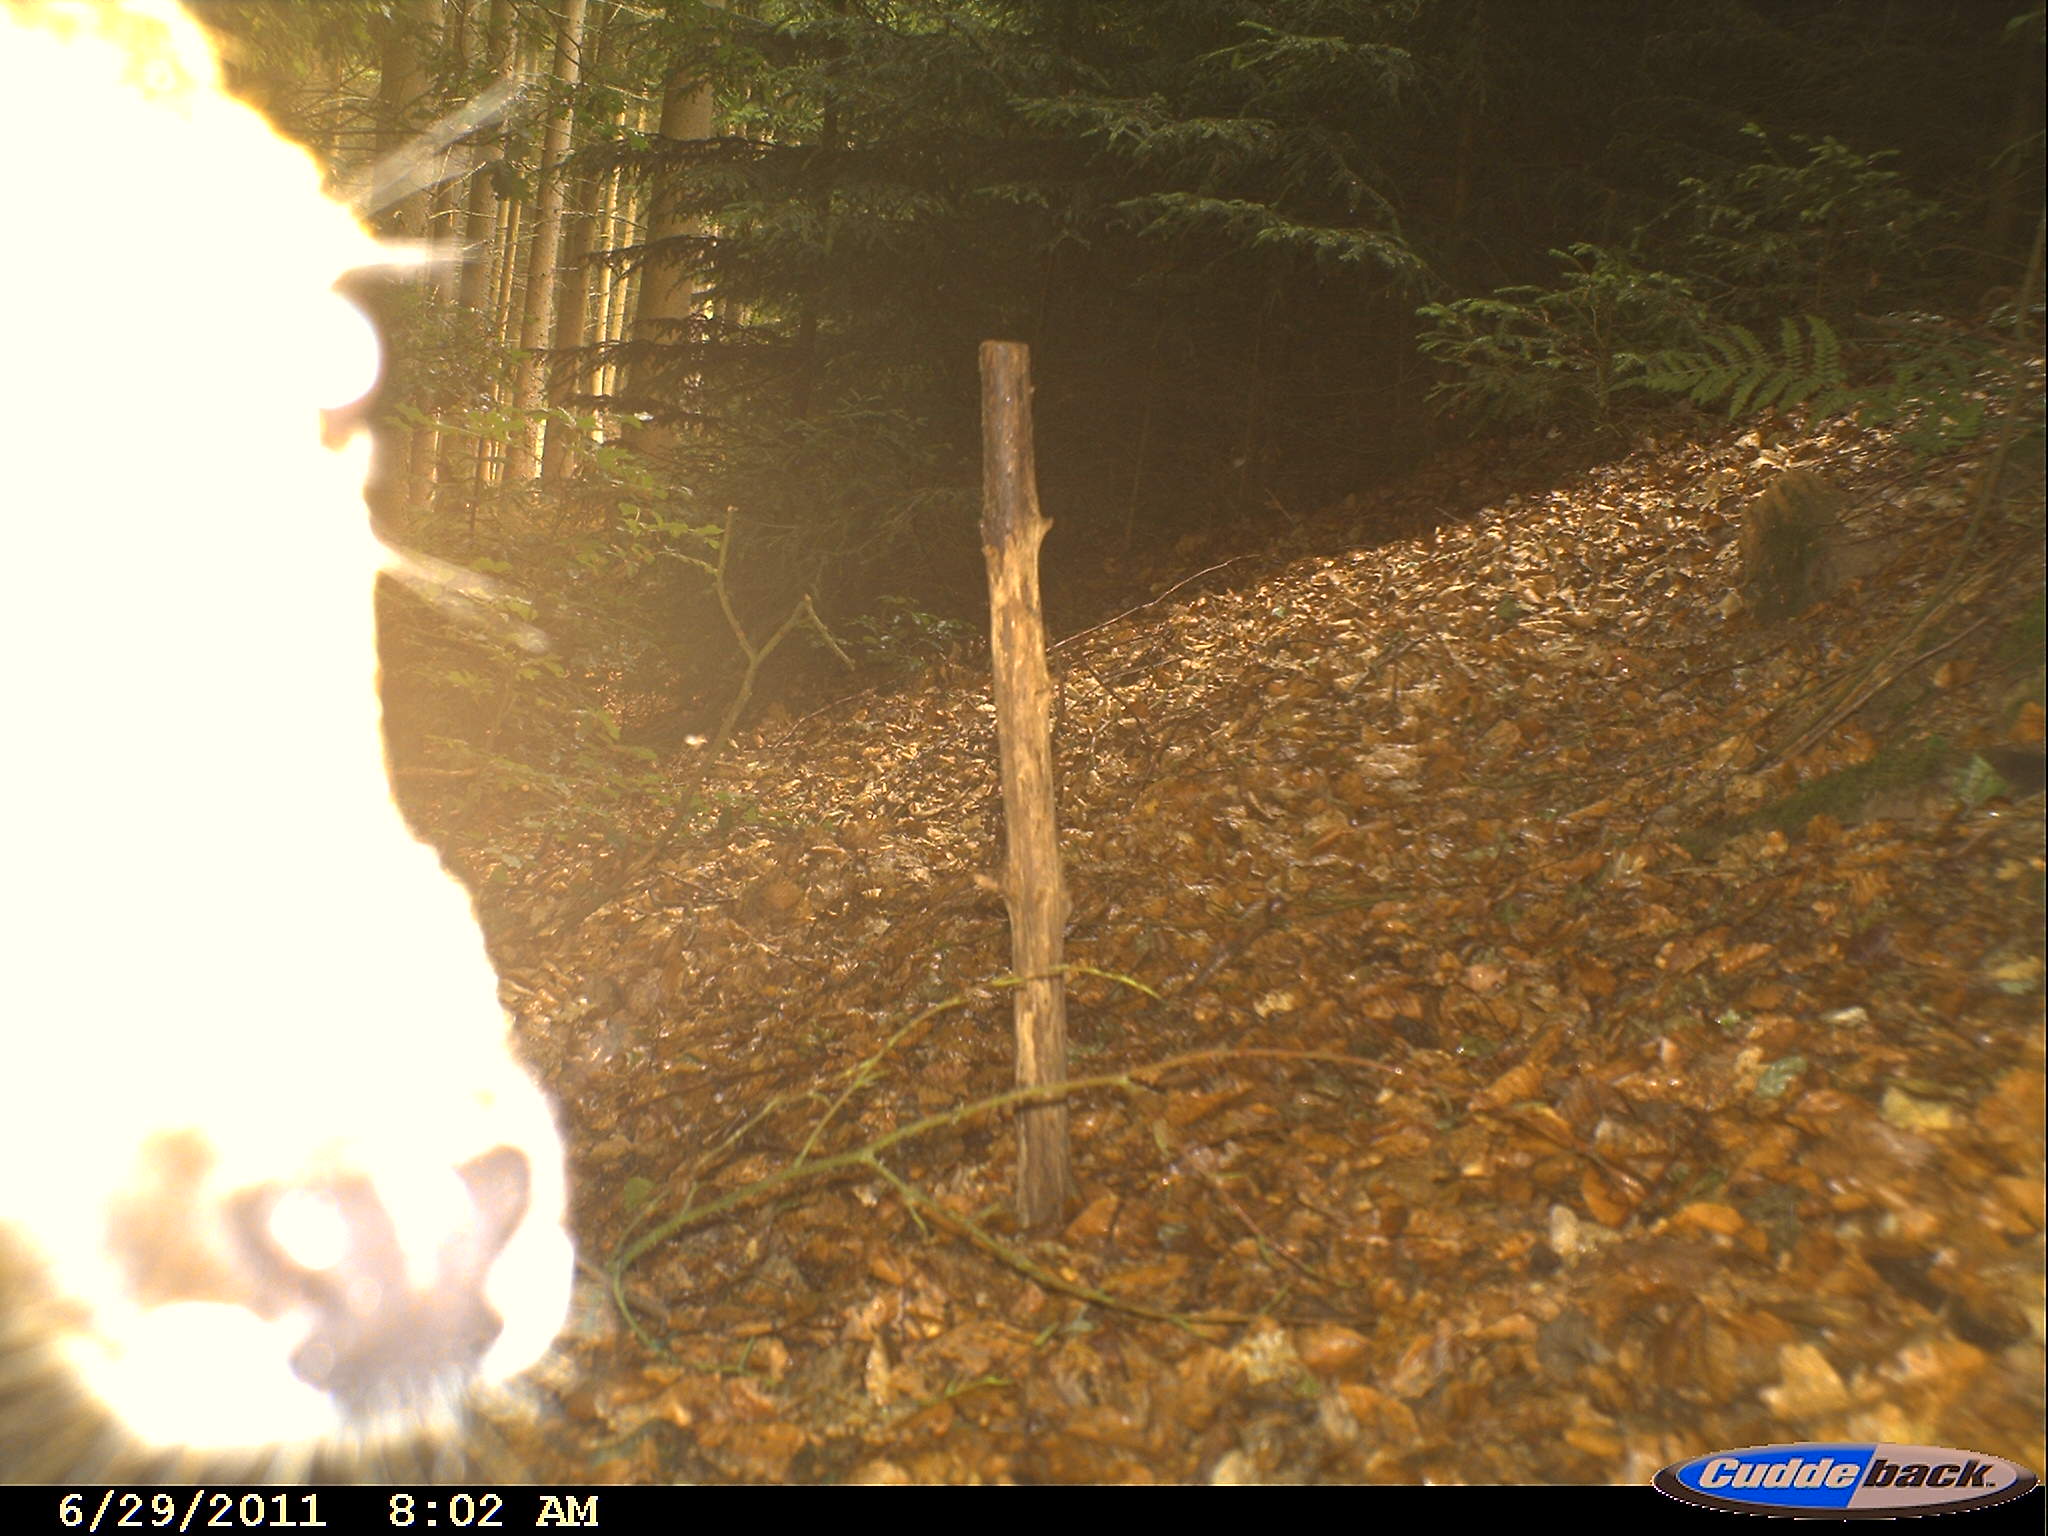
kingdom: Animalia
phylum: Chordata
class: Mammalia
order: Artiodactyla
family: Cervidae
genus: Capreolus
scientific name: Capreolus capreolus
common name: Western roe deer
